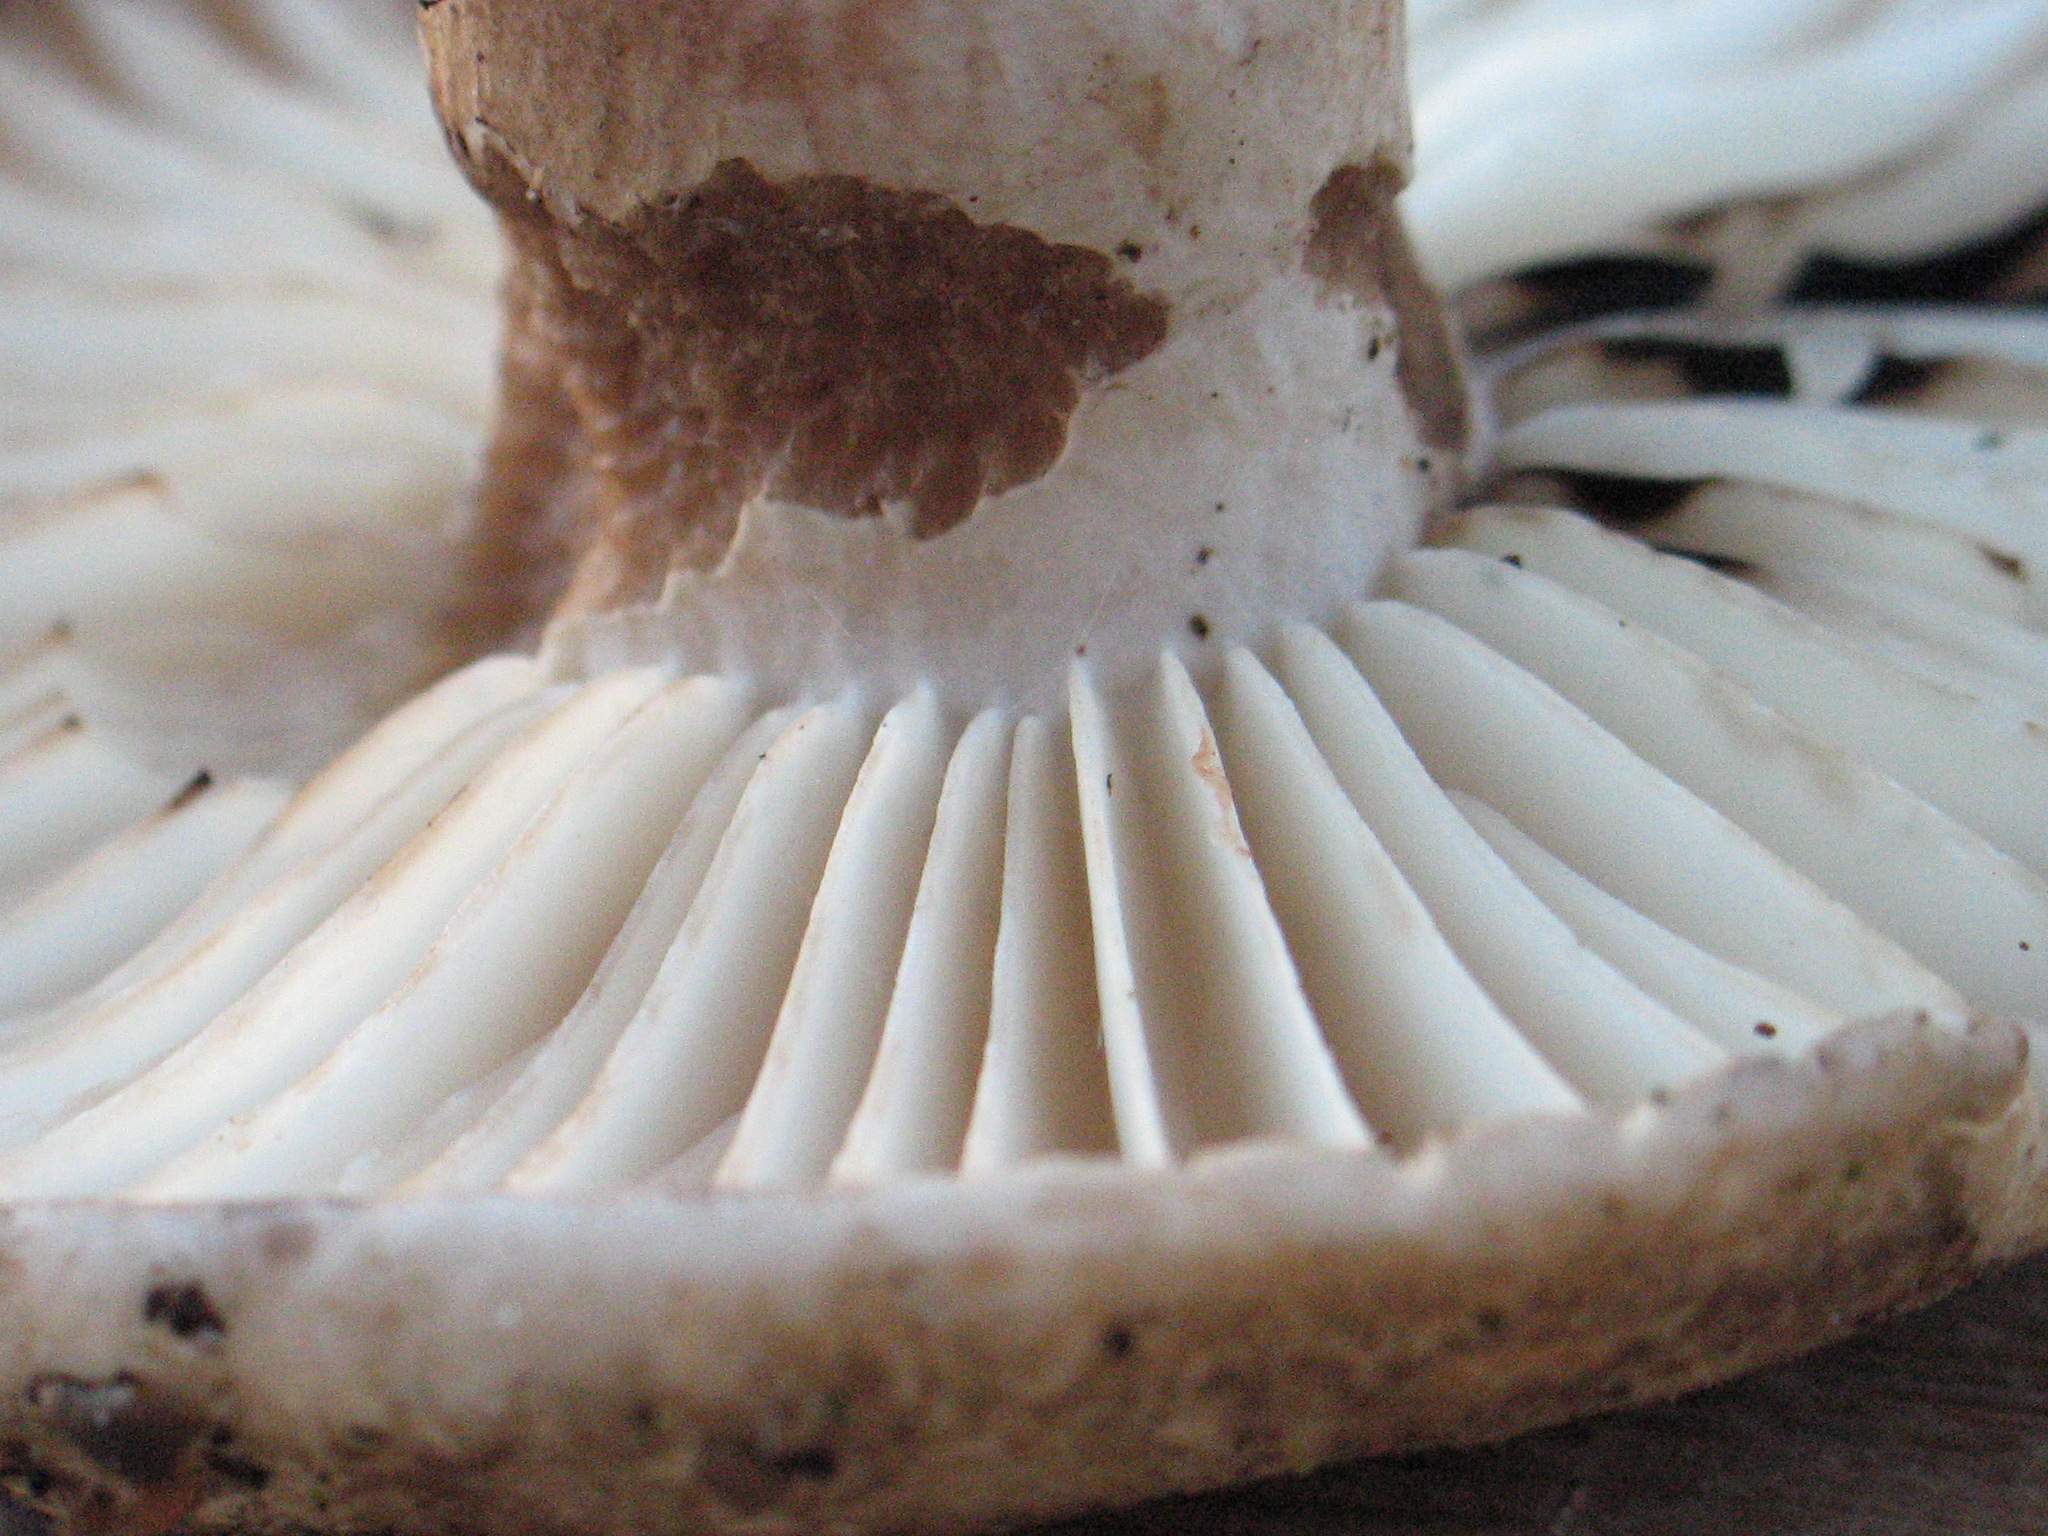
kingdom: Fungi
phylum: Basidiomycota
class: Agaricomycetes
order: Russulales
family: Russulaceae
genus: Russula
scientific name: Russula adusta
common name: sværtende skørhat
